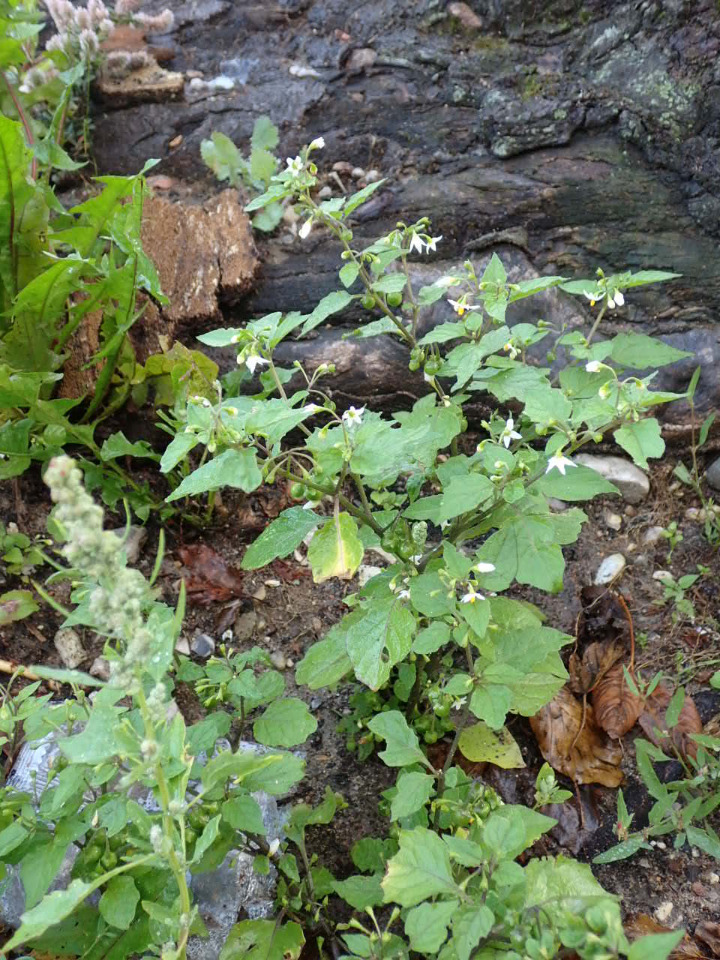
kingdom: Plantae
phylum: Tracheophyta
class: Magnoliopsida
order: Solanales
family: Solanaceae
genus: Solanum
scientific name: Solanum nigrum
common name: Sort natskygge
